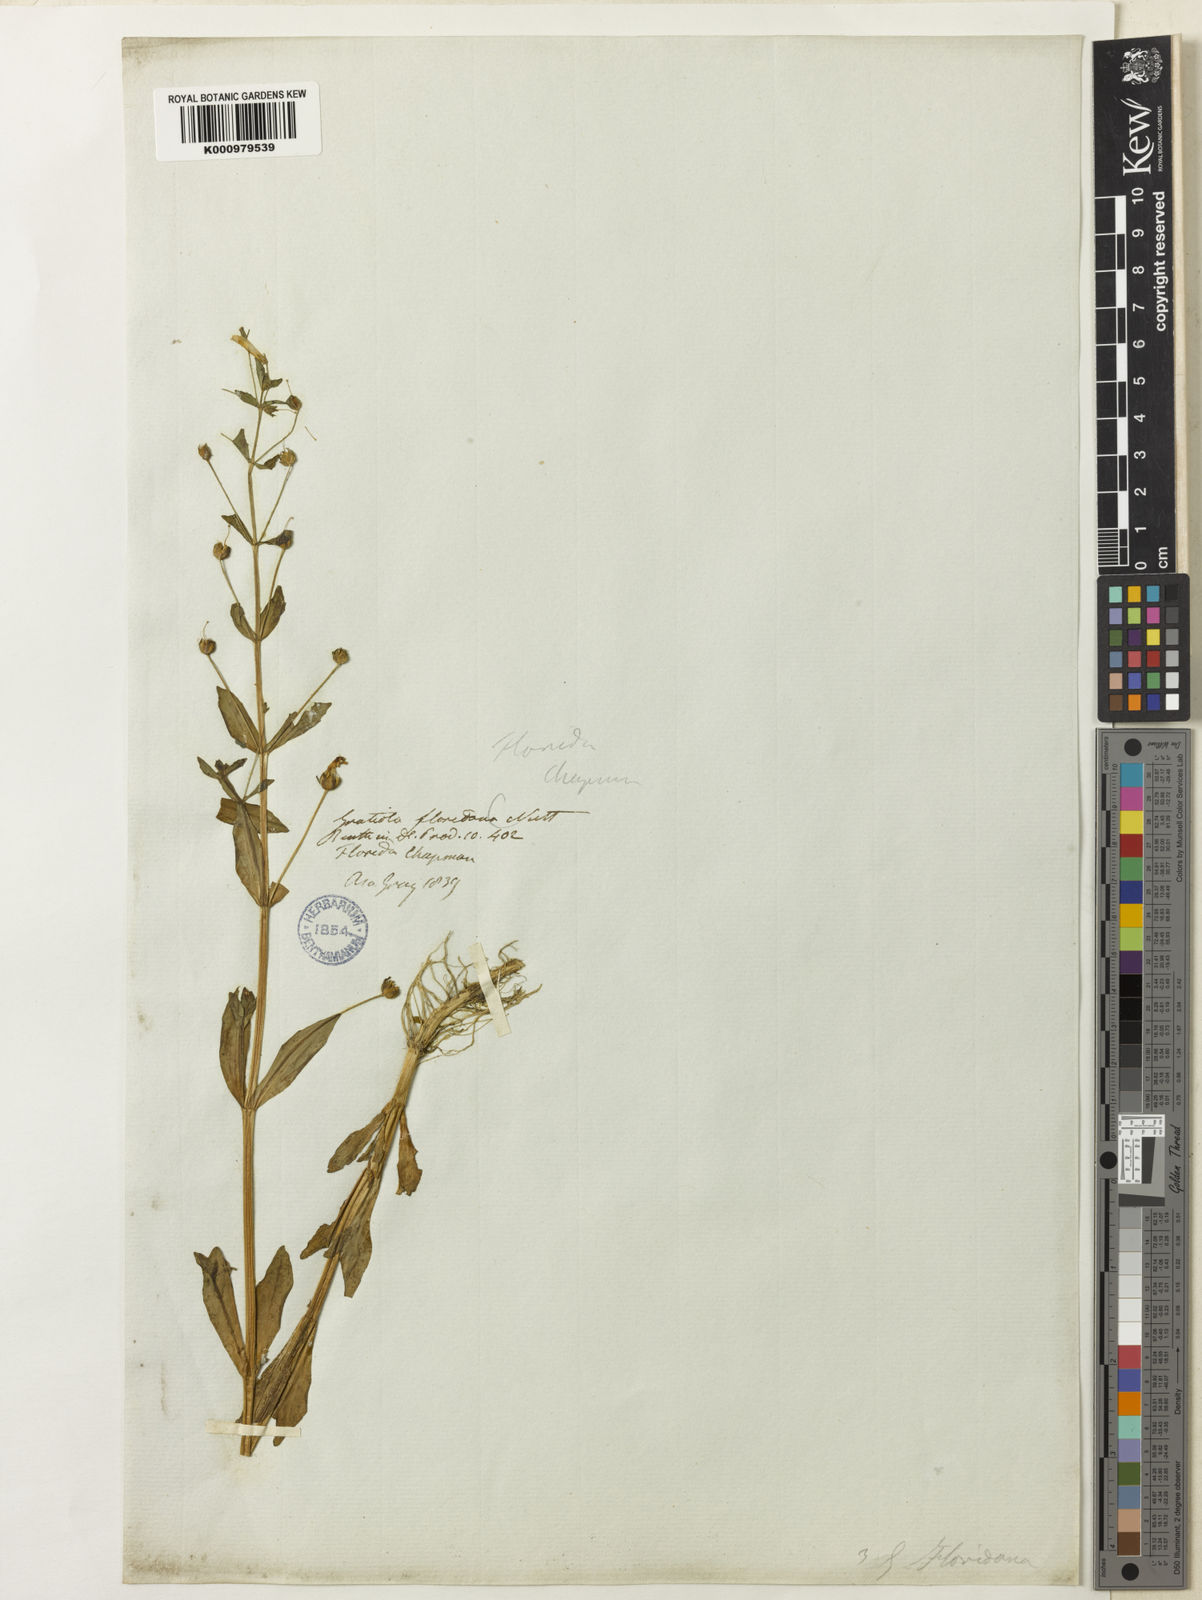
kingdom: Plantae
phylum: Tracheophyta
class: Magnoliopsida
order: Lamiales
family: Plantaginaceae
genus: Gratiola
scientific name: Gratiola floridana
